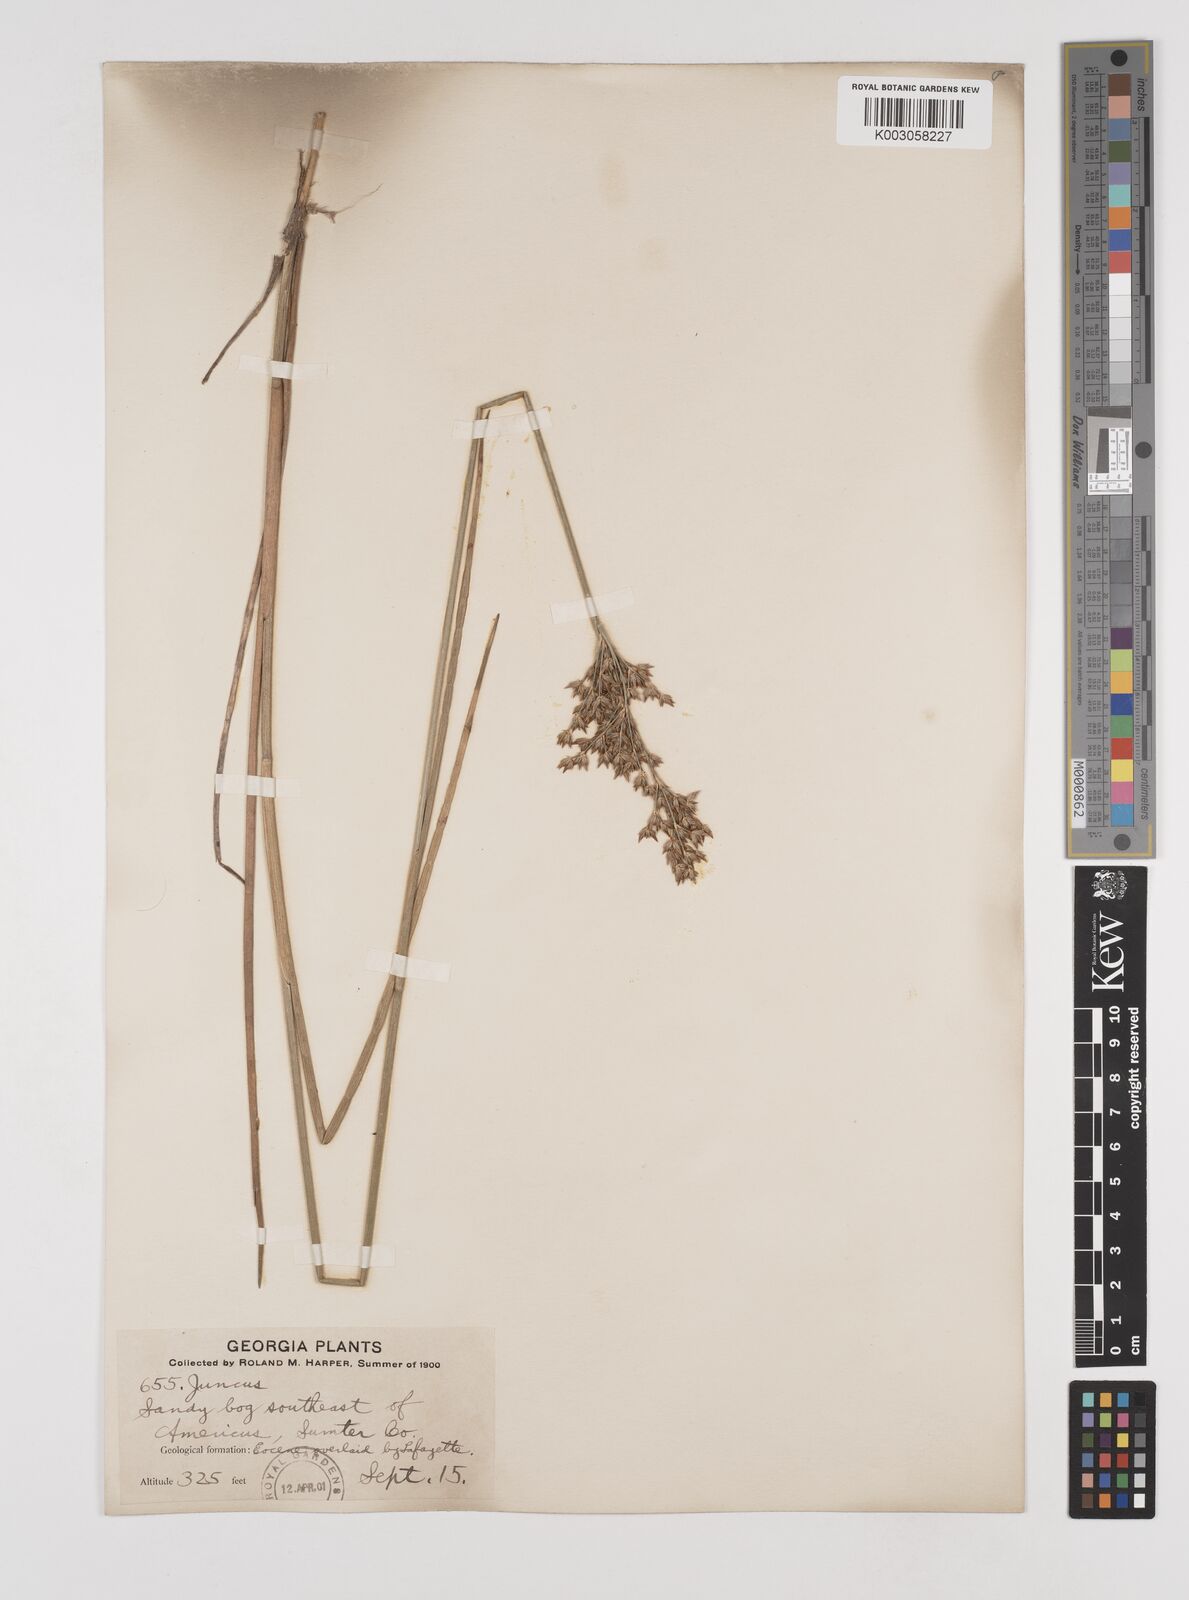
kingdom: Plantae
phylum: Tracheophyta
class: Liliopsida
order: Poales
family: Juncaceae
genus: Juncus
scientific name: Juncus
